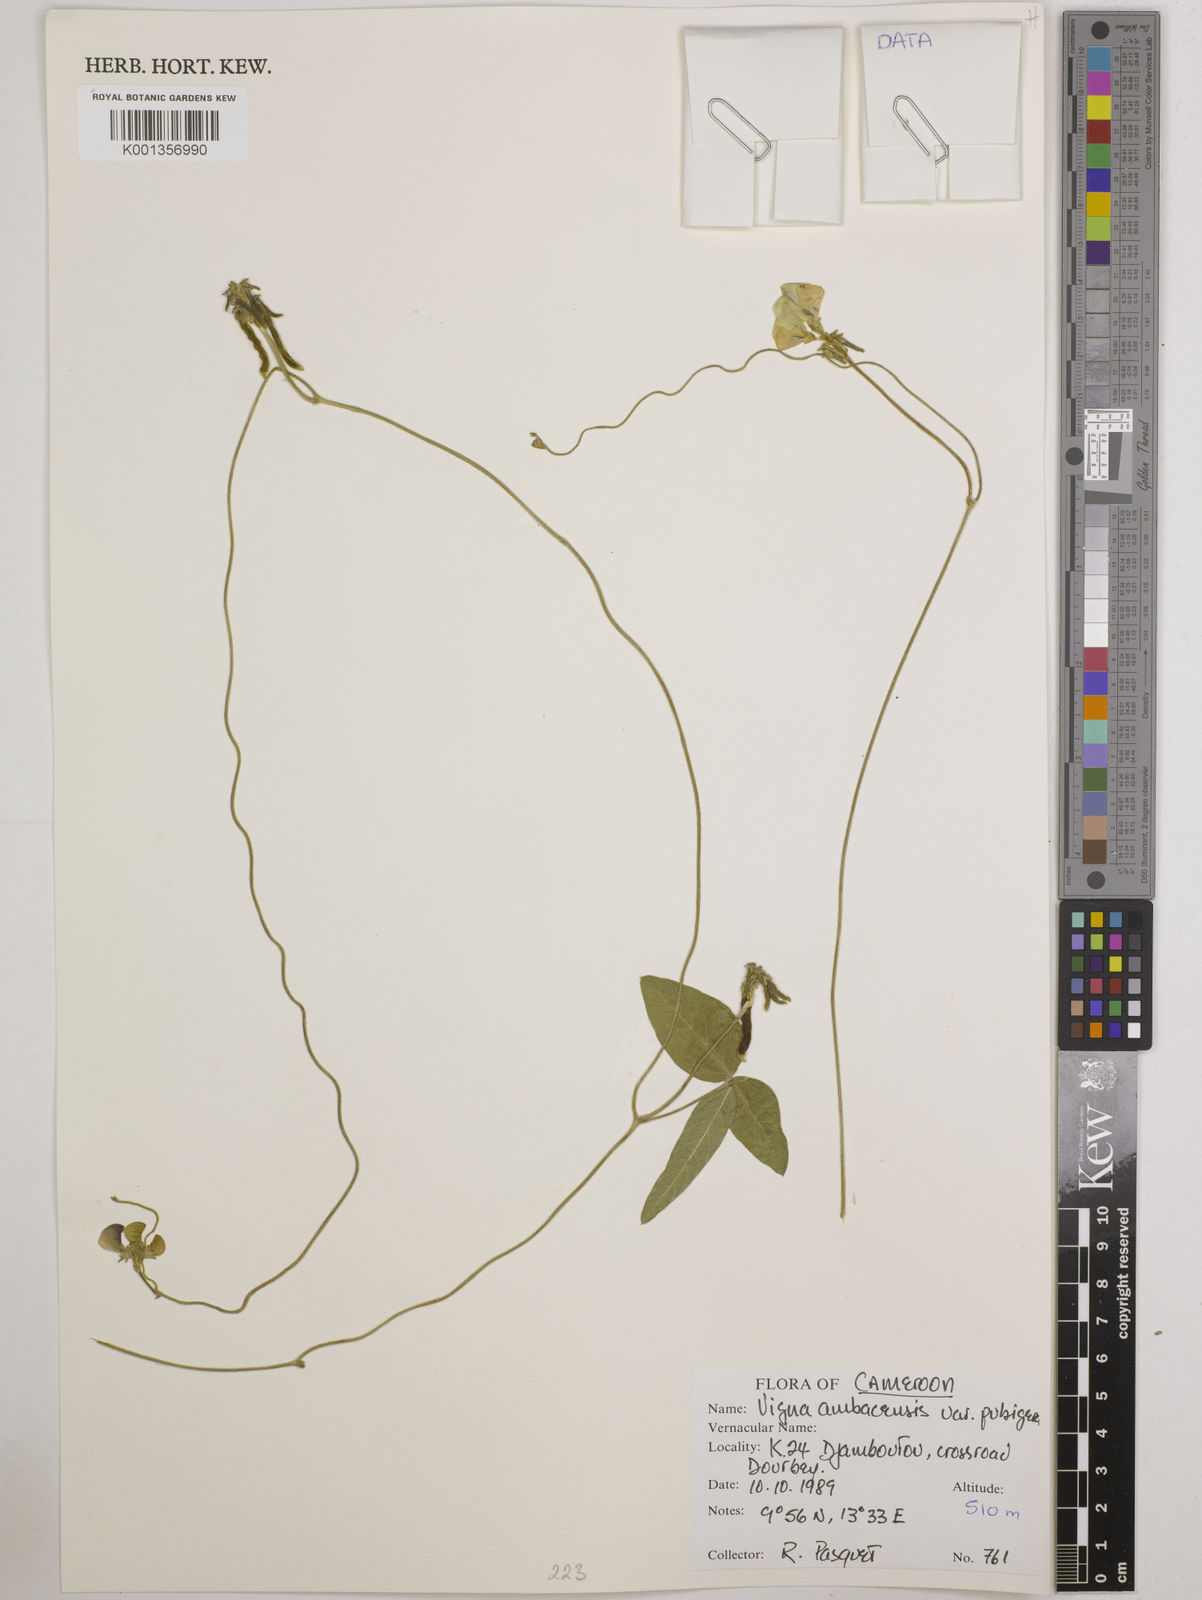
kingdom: Plantae
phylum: Tracheophyta
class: Magnoliopsida
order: Fabales
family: Fabaceae
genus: Vigna
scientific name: Vigna pubigera
